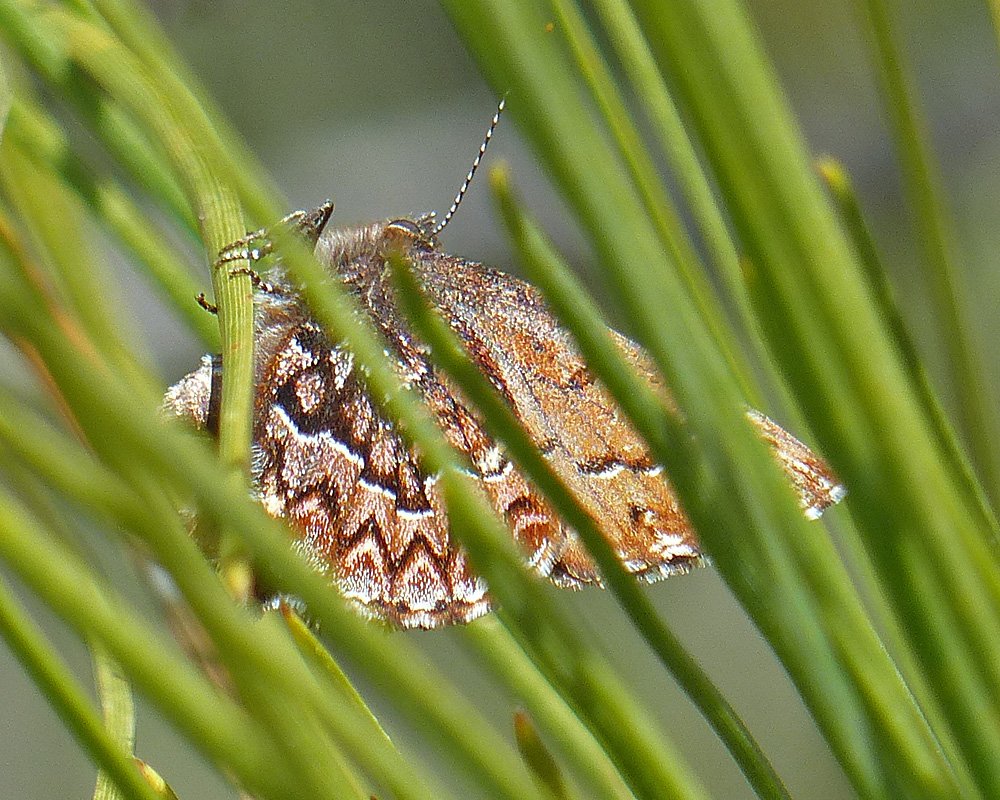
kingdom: Animalia
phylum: Arthropoda
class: Insecta
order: Lepidoptera
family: Lycaenidae
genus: Incisalia
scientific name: Incisalia eryphon
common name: Western Pine Elfin
